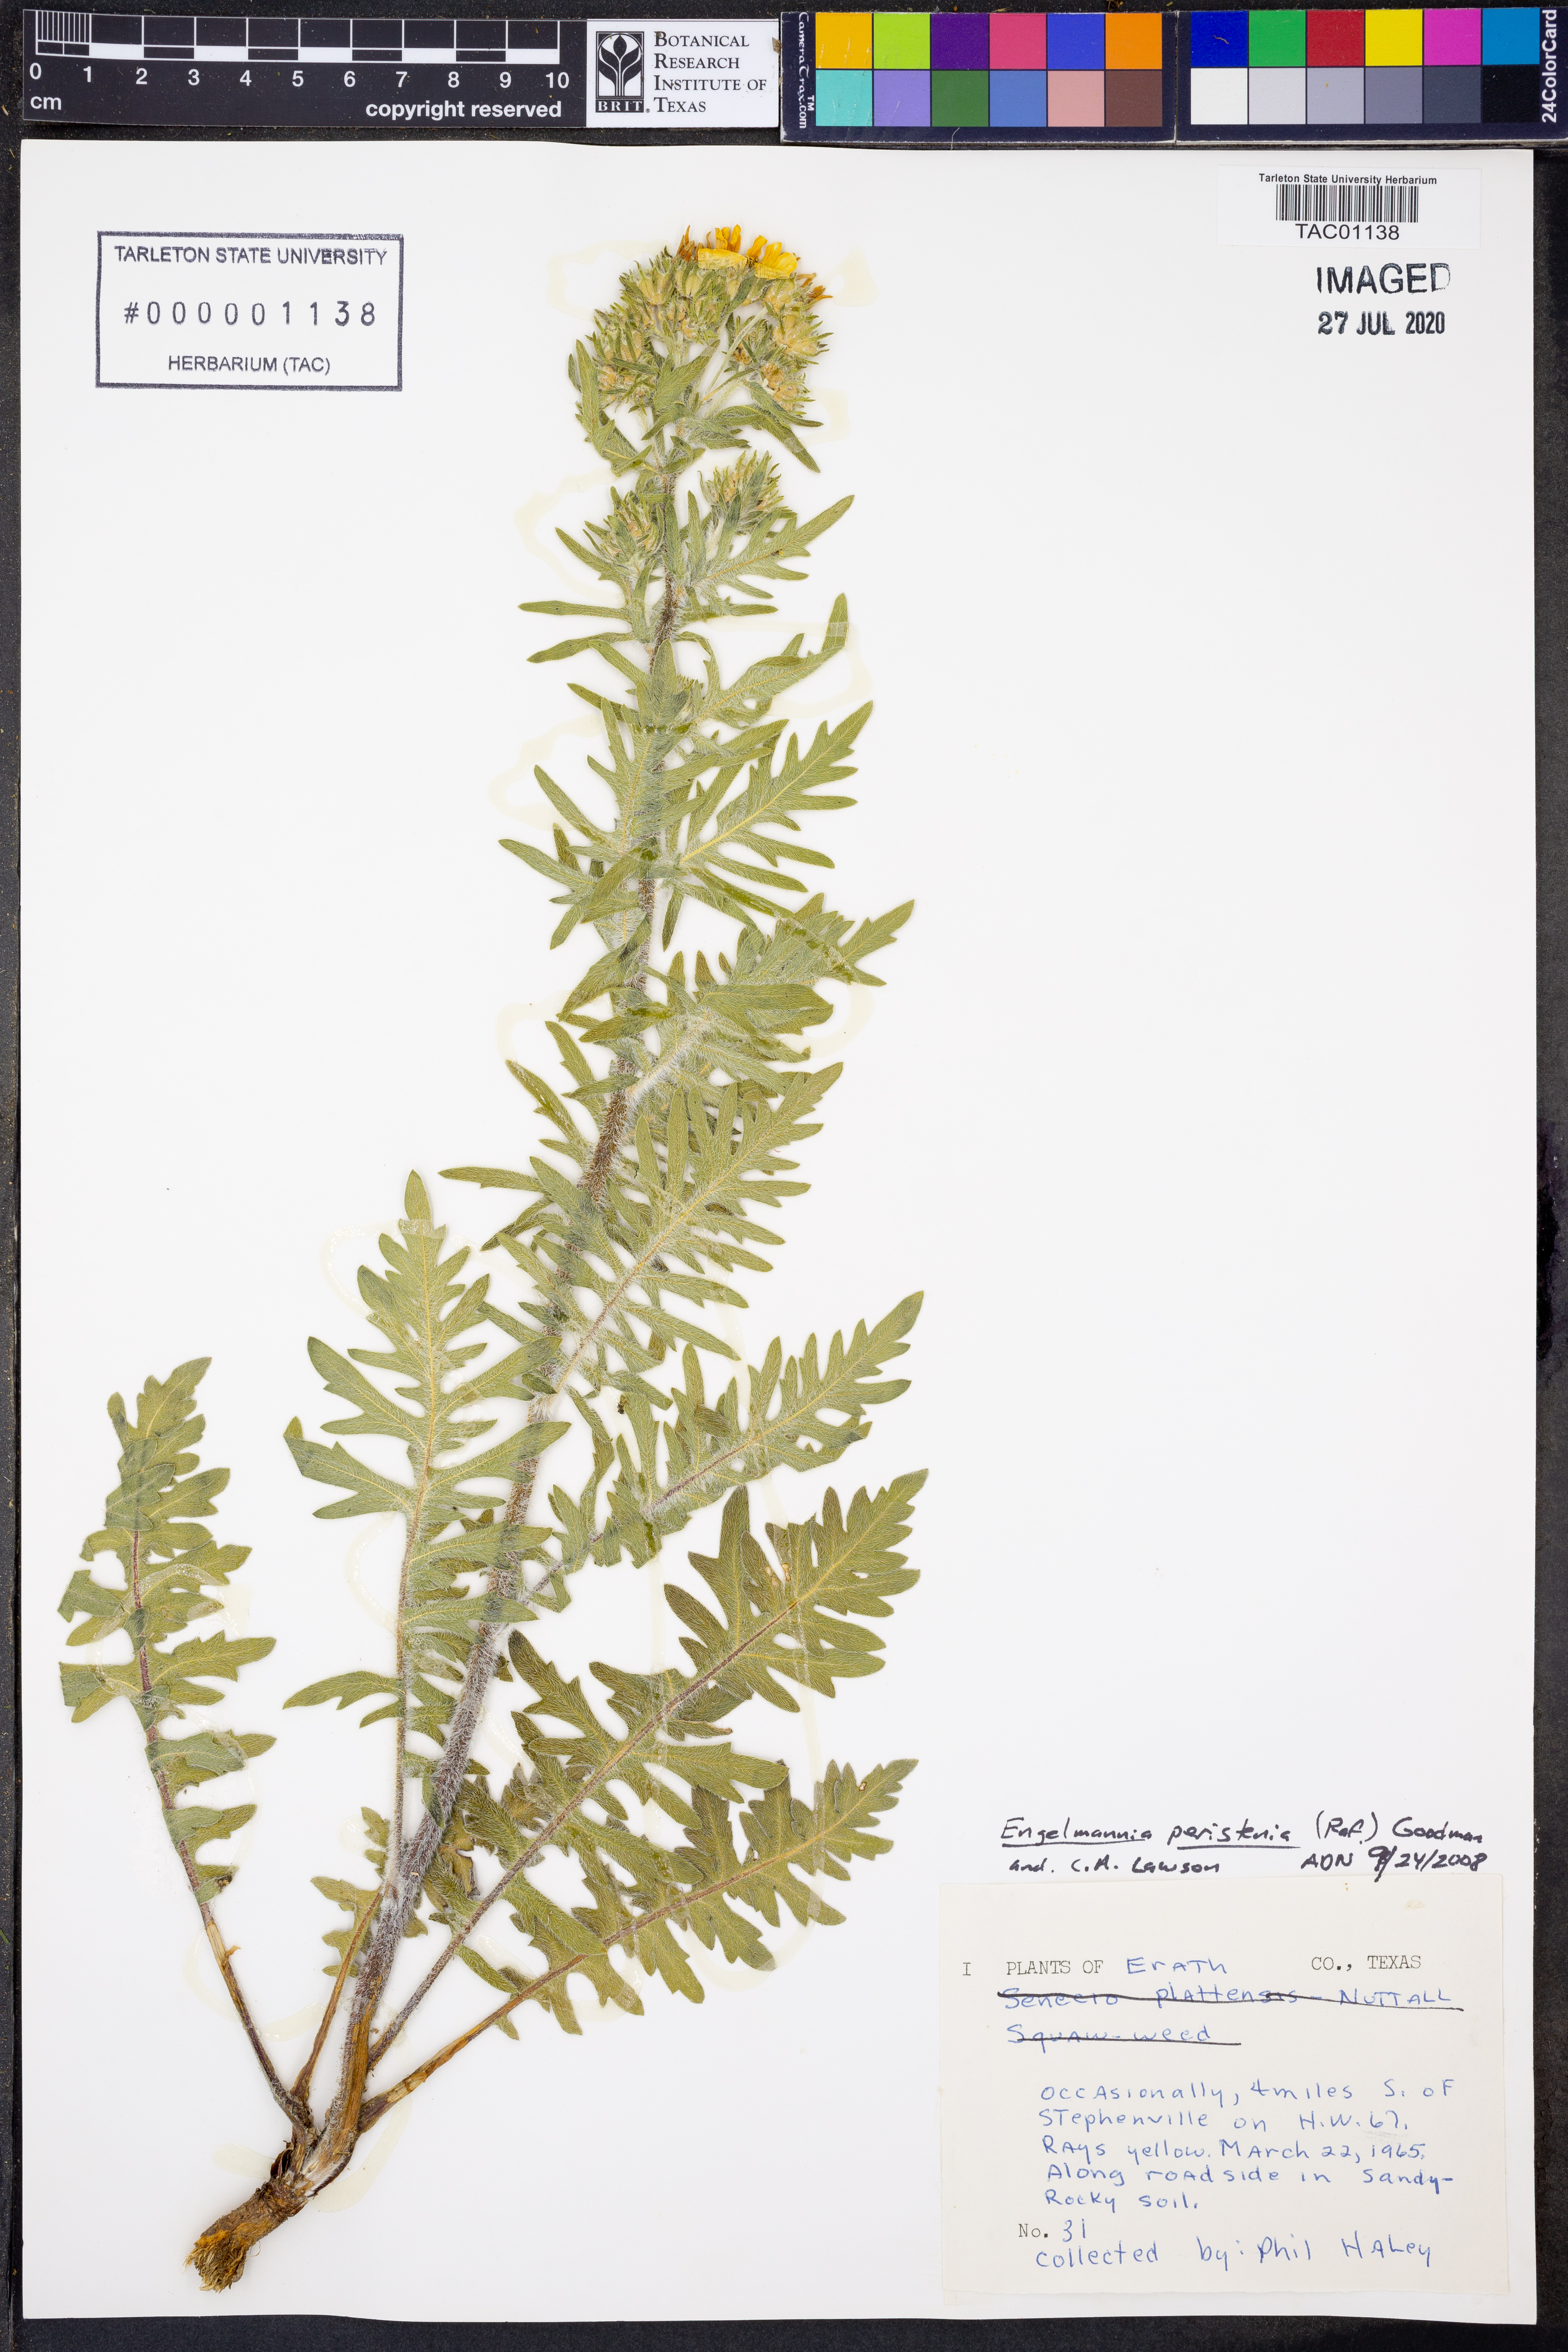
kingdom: Plantae
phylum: Tracheophyta
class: Magnoliopsida
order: Asterales
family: Asteraceae
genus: Engelmannia
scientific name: Engelmannia peristenia
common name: Engelmann's daisy
